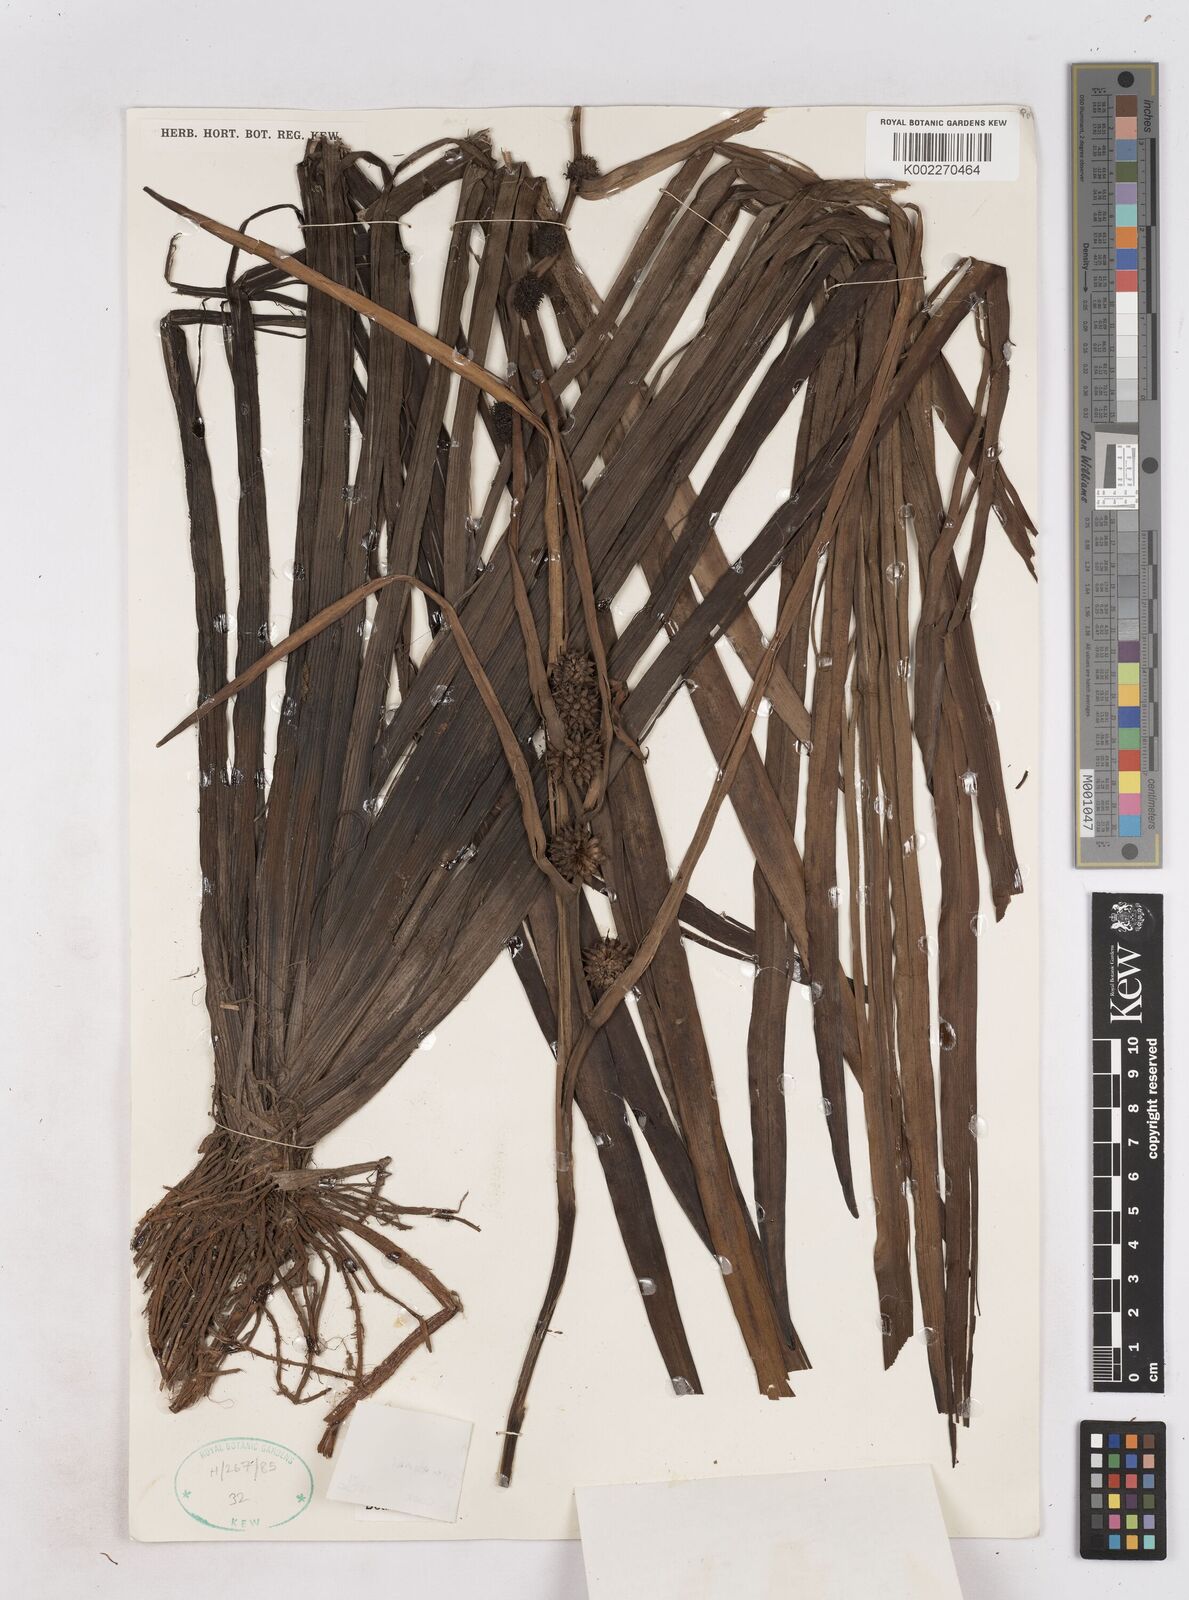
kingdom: Plantae
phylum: Tracheophyta
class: Liliopsida
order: Poales
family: Typhaceae
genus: Sparganium
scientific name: Sparganium fallax
